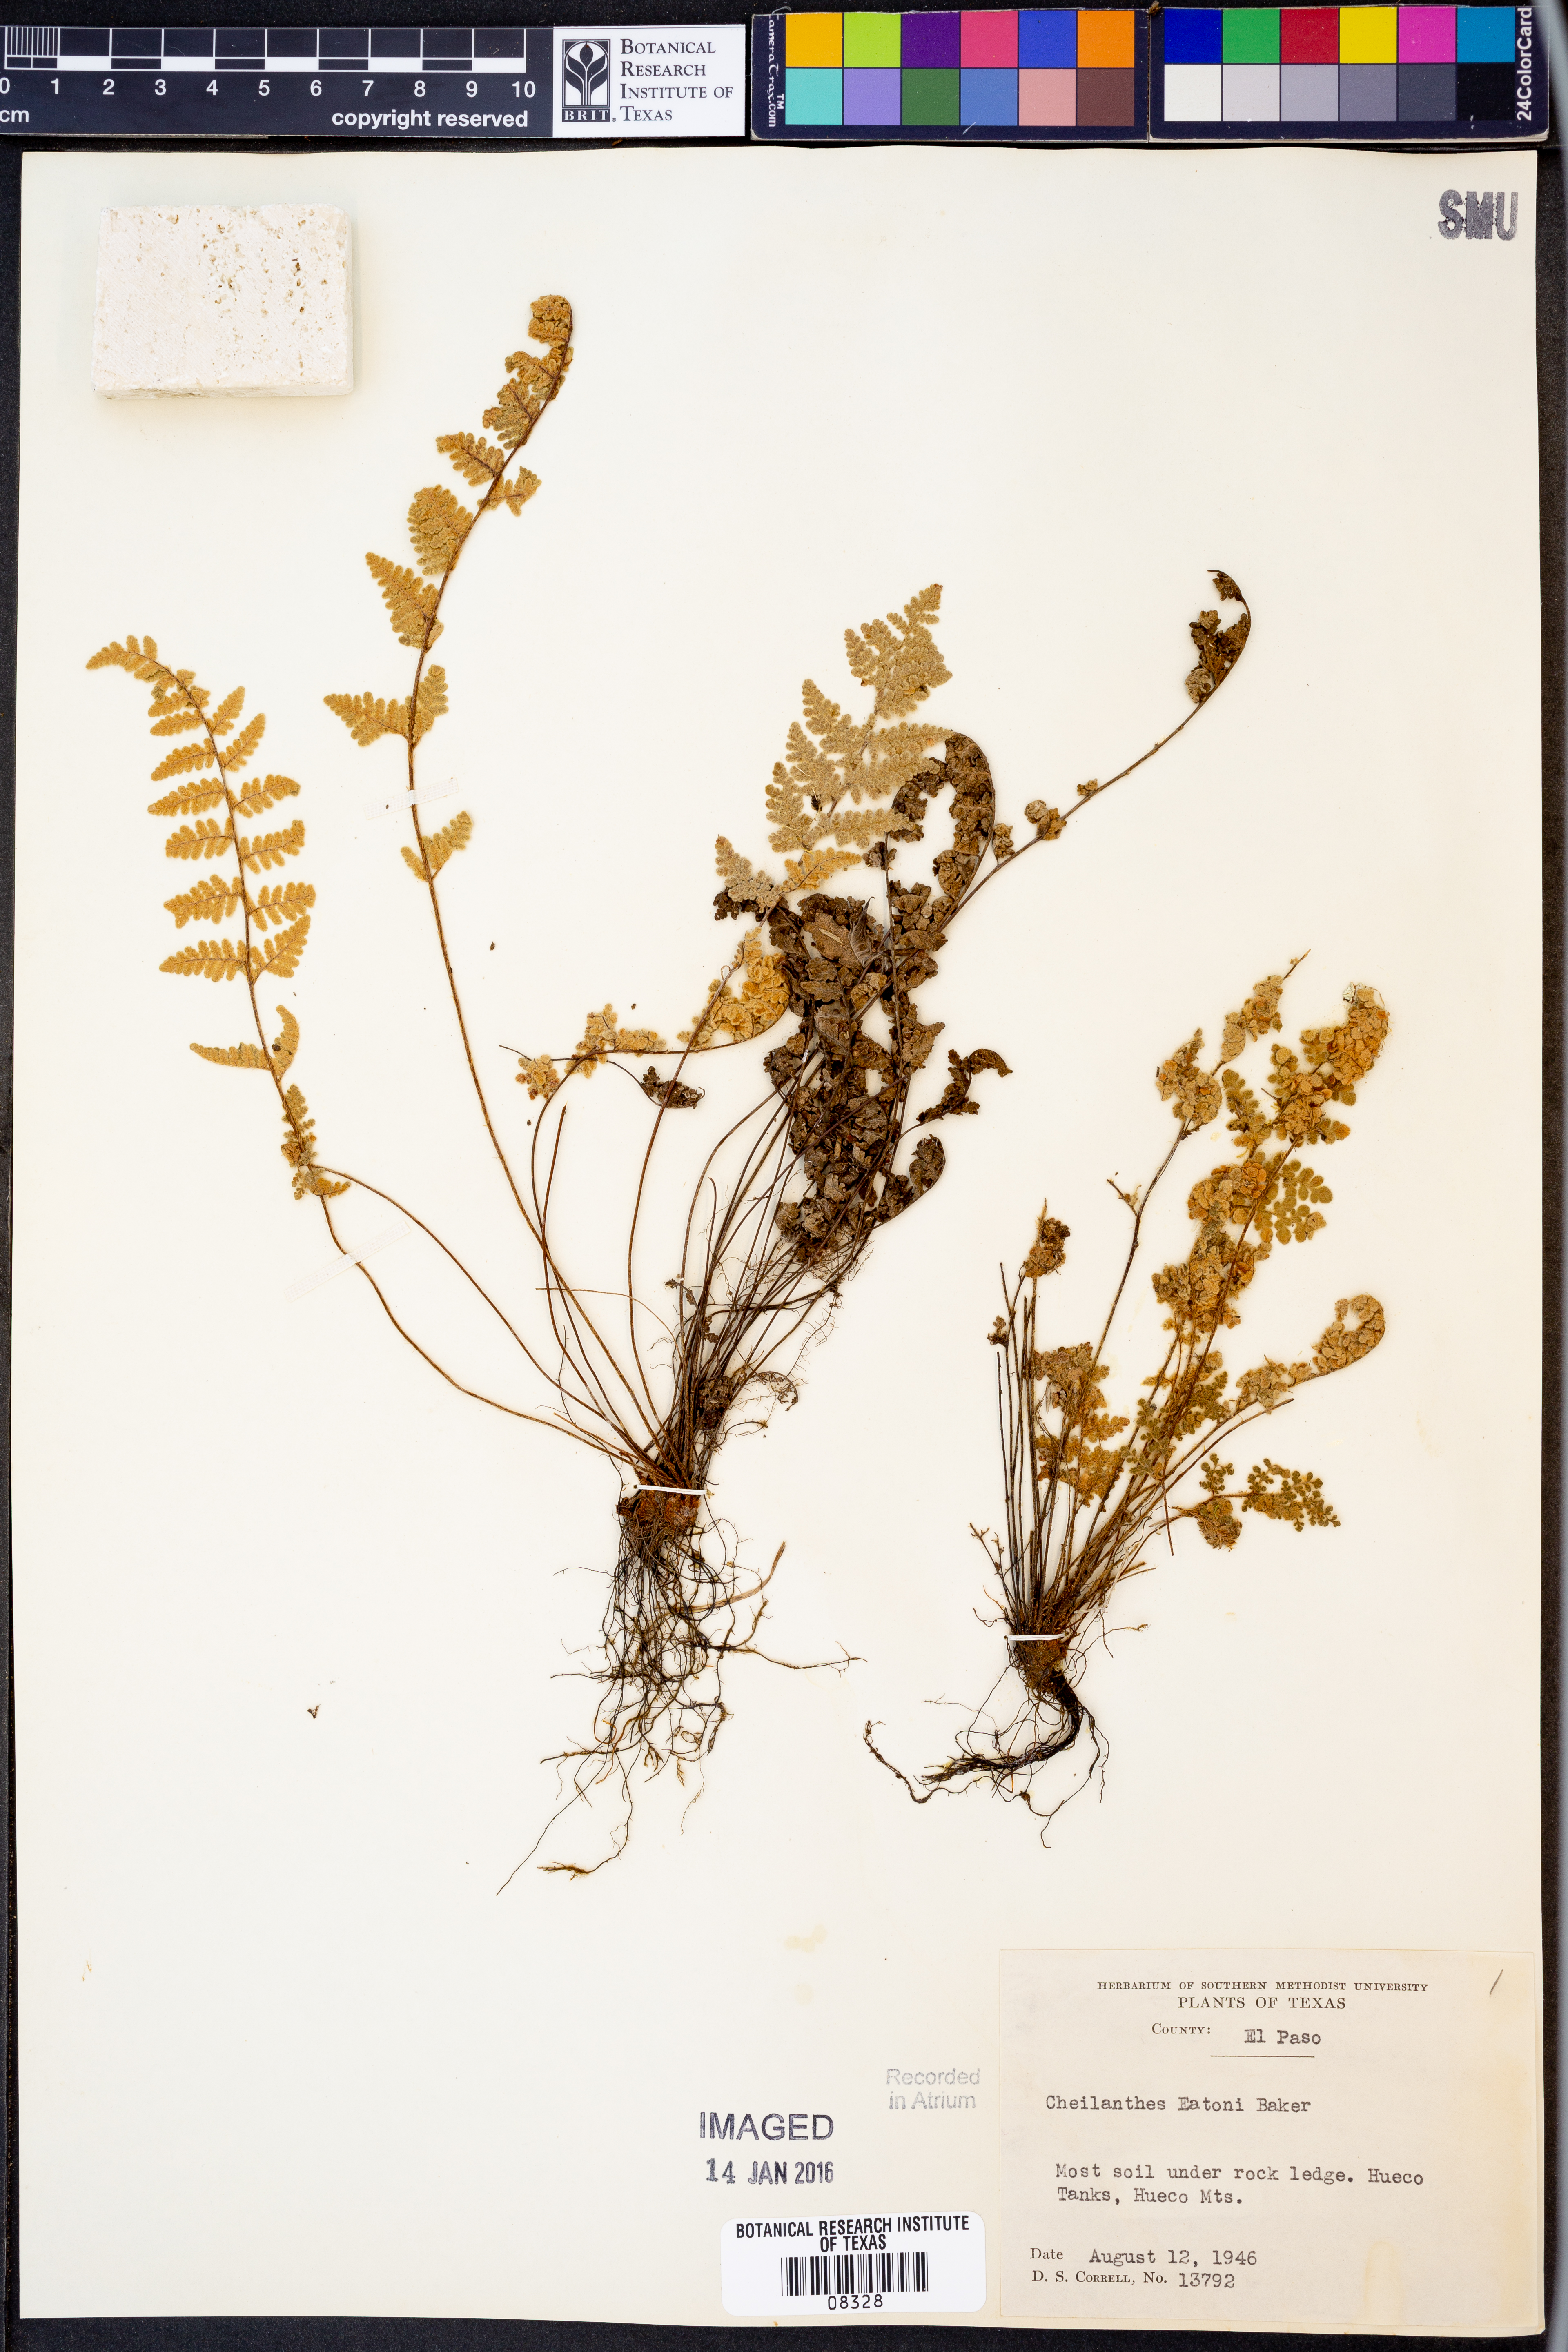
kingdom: Plantae
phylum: Tracheophyta
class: Polypodiopsida
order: Polypodiales
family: Pteridaceae
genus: Myriopteris
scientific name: Myriopteris rufa
